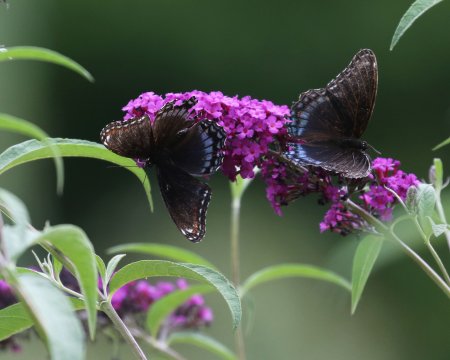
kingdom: Animalia
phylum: Arthropoda
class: Insecta
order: Lepidoptera
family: Nymphalidae
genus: Limenitis
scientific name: Limenitis arthemis
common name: Red-spotted Admiral
